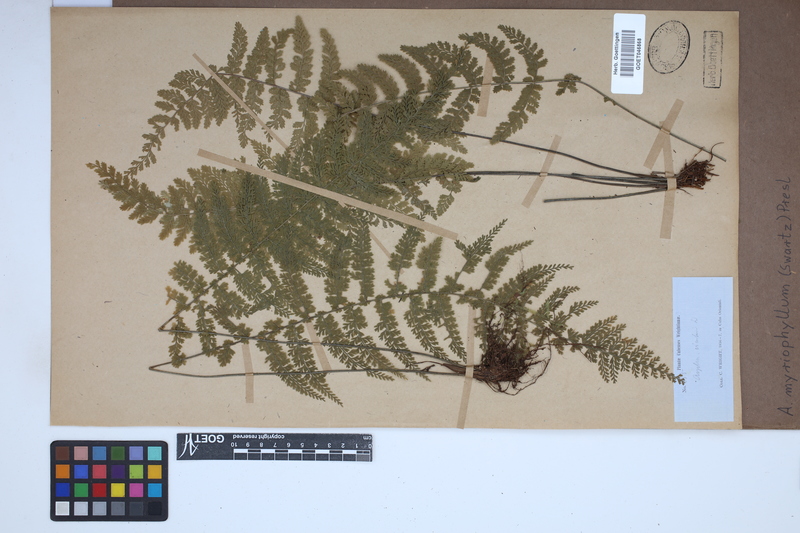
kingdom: Plantae
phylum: Tracheophyta
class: Polypodiopsida
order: Polypodiales
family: Aspleniaceae
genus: Asplenium
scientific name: Asplenium myriophyllum
